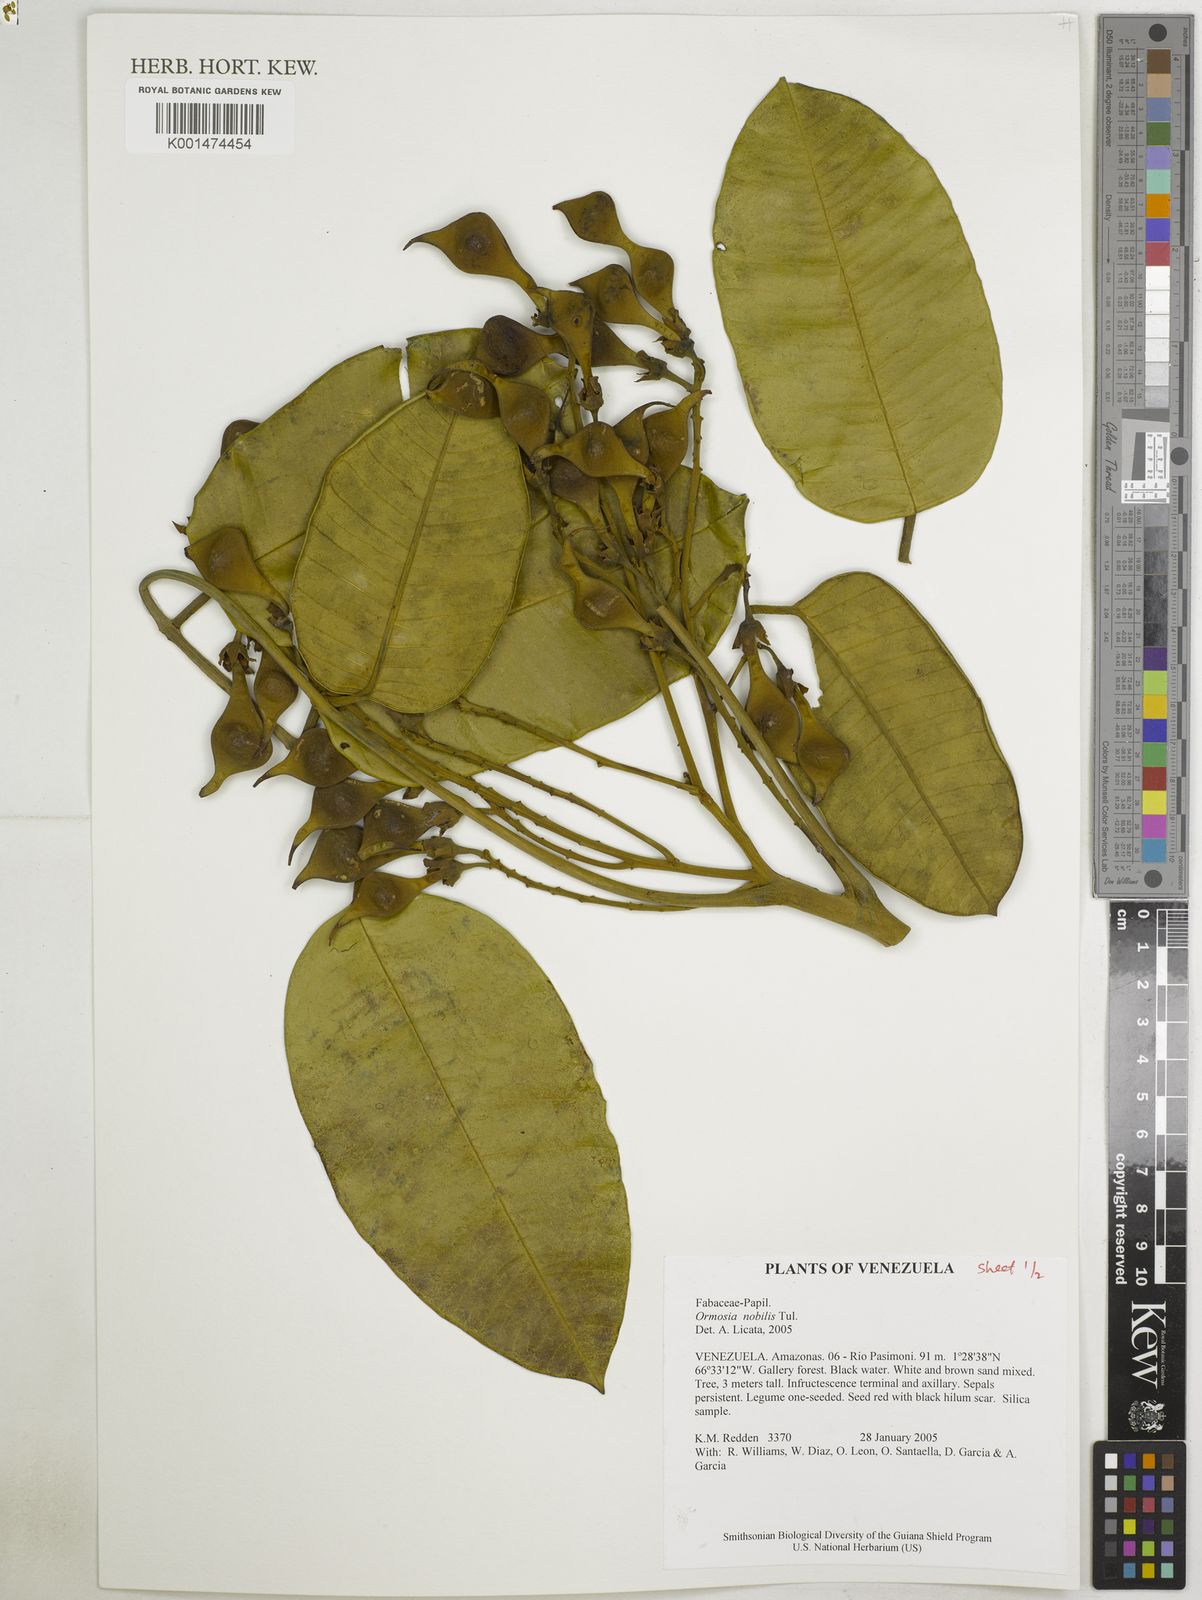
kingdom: Plantae
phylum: Tracheophyta
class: Magnoliopsida
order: Fabales
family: Fabaceae
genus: Ormosia
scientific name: Ormosia nobilis
